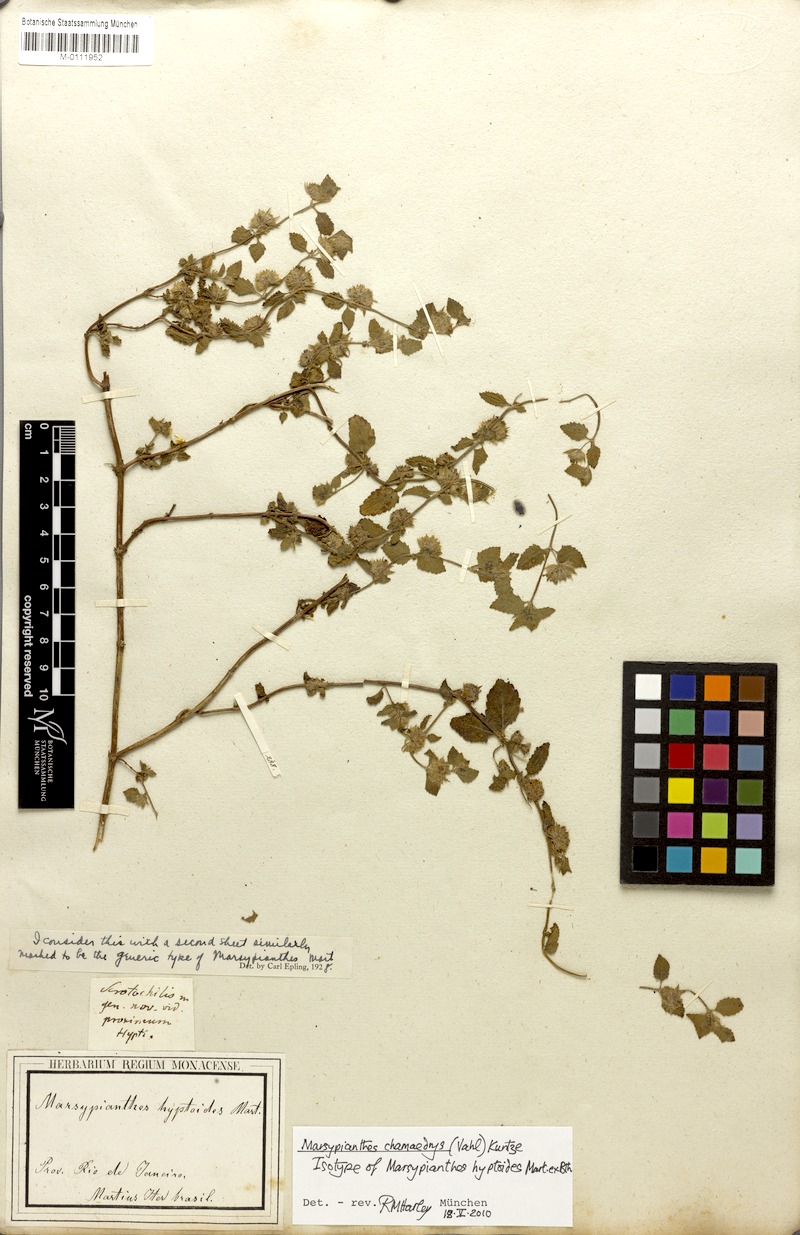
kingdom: Plantae
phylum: Tracheophyta
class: Magnoliopsida
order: Lamiales
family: Lamiaceae
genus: Marsypianthes
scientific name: Marsypianthes chamaedrys
